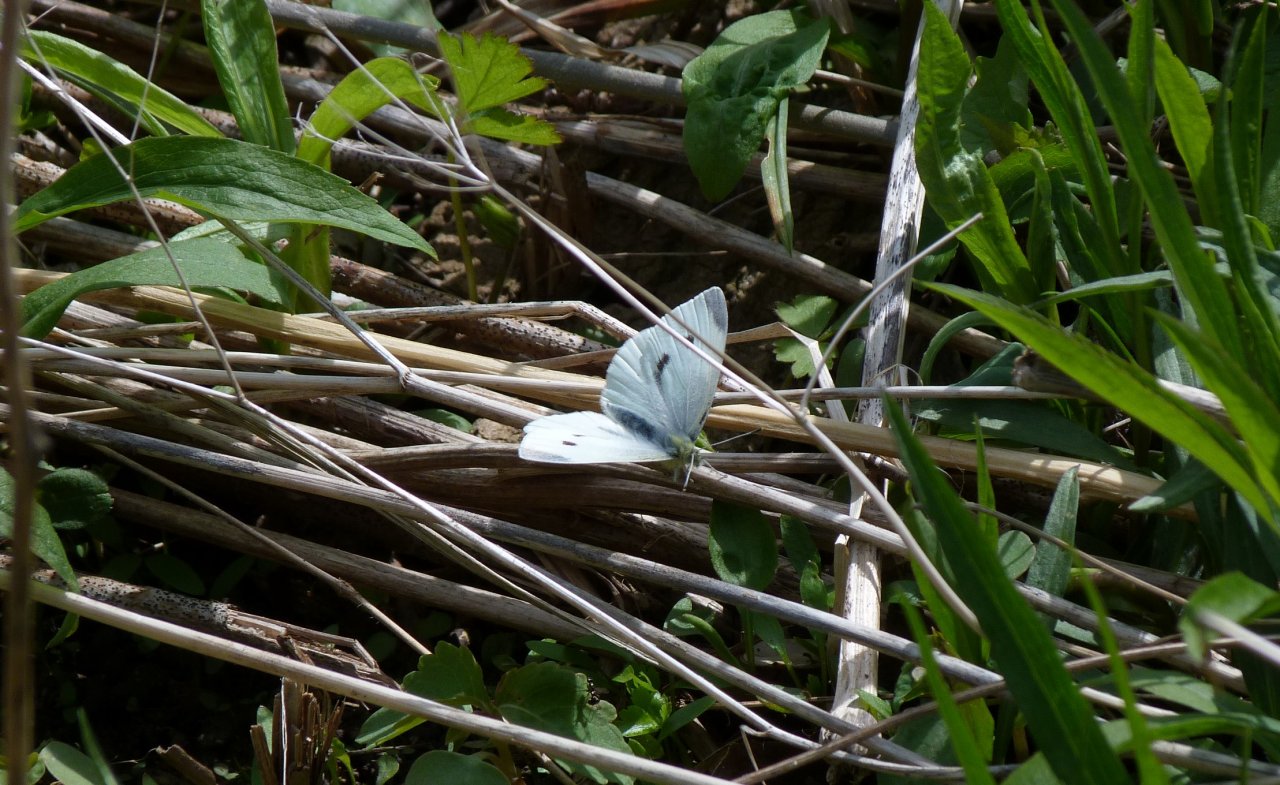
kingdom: Animalia
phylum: Arthropoda
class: Insecta
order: Lepidoptera
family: Pieridae
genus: Pieris
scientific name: Pieris rapae
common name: Cabbage White
